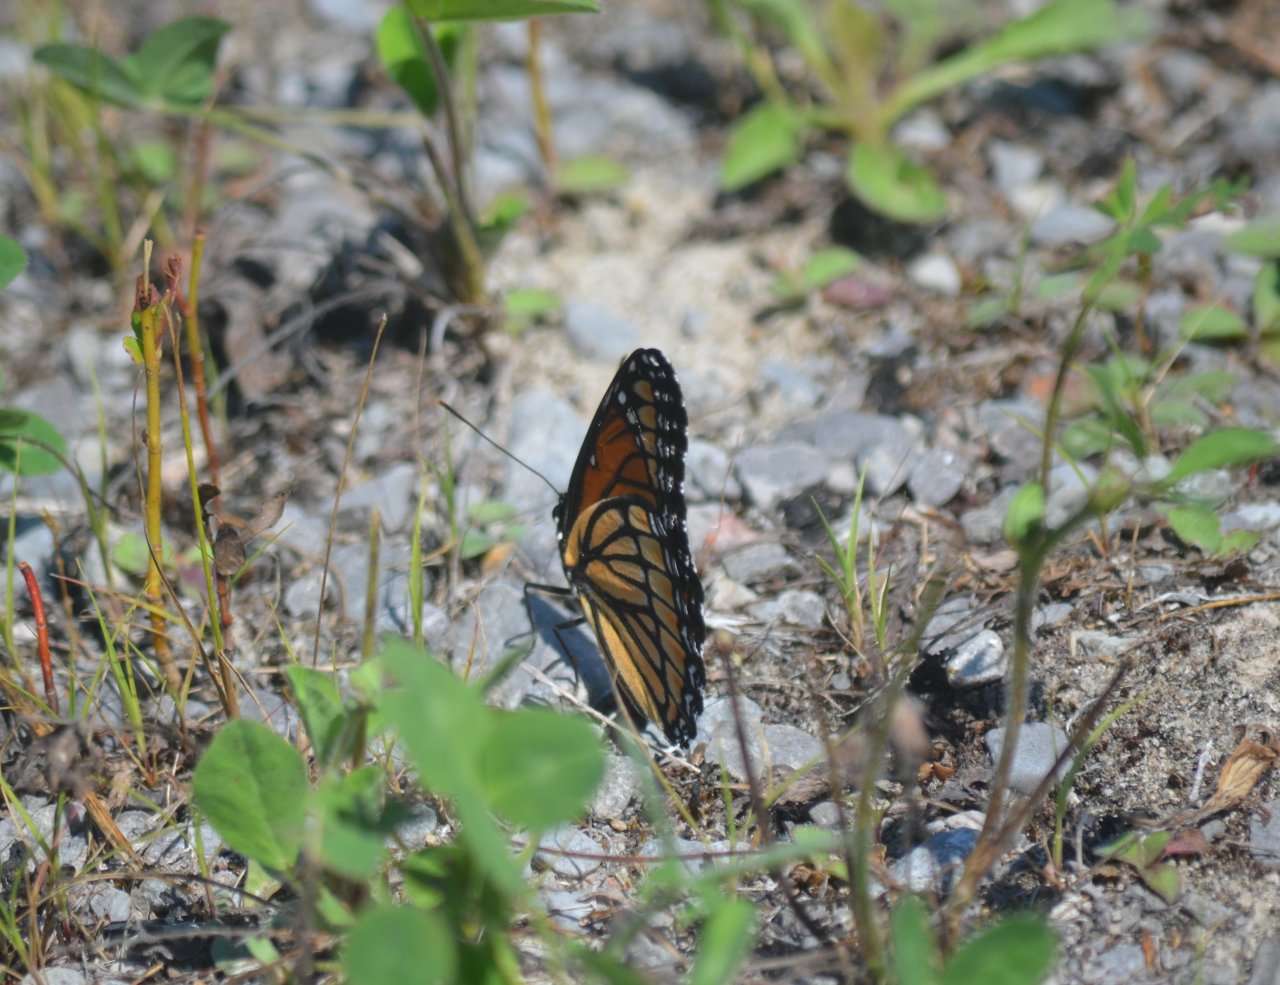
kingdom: Animalia
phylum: Arthropoda
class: Insecta
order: Lepidoptera
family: Nymphalidae
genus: Limenitis
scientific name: Limenitis archippus
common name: Viceroy
